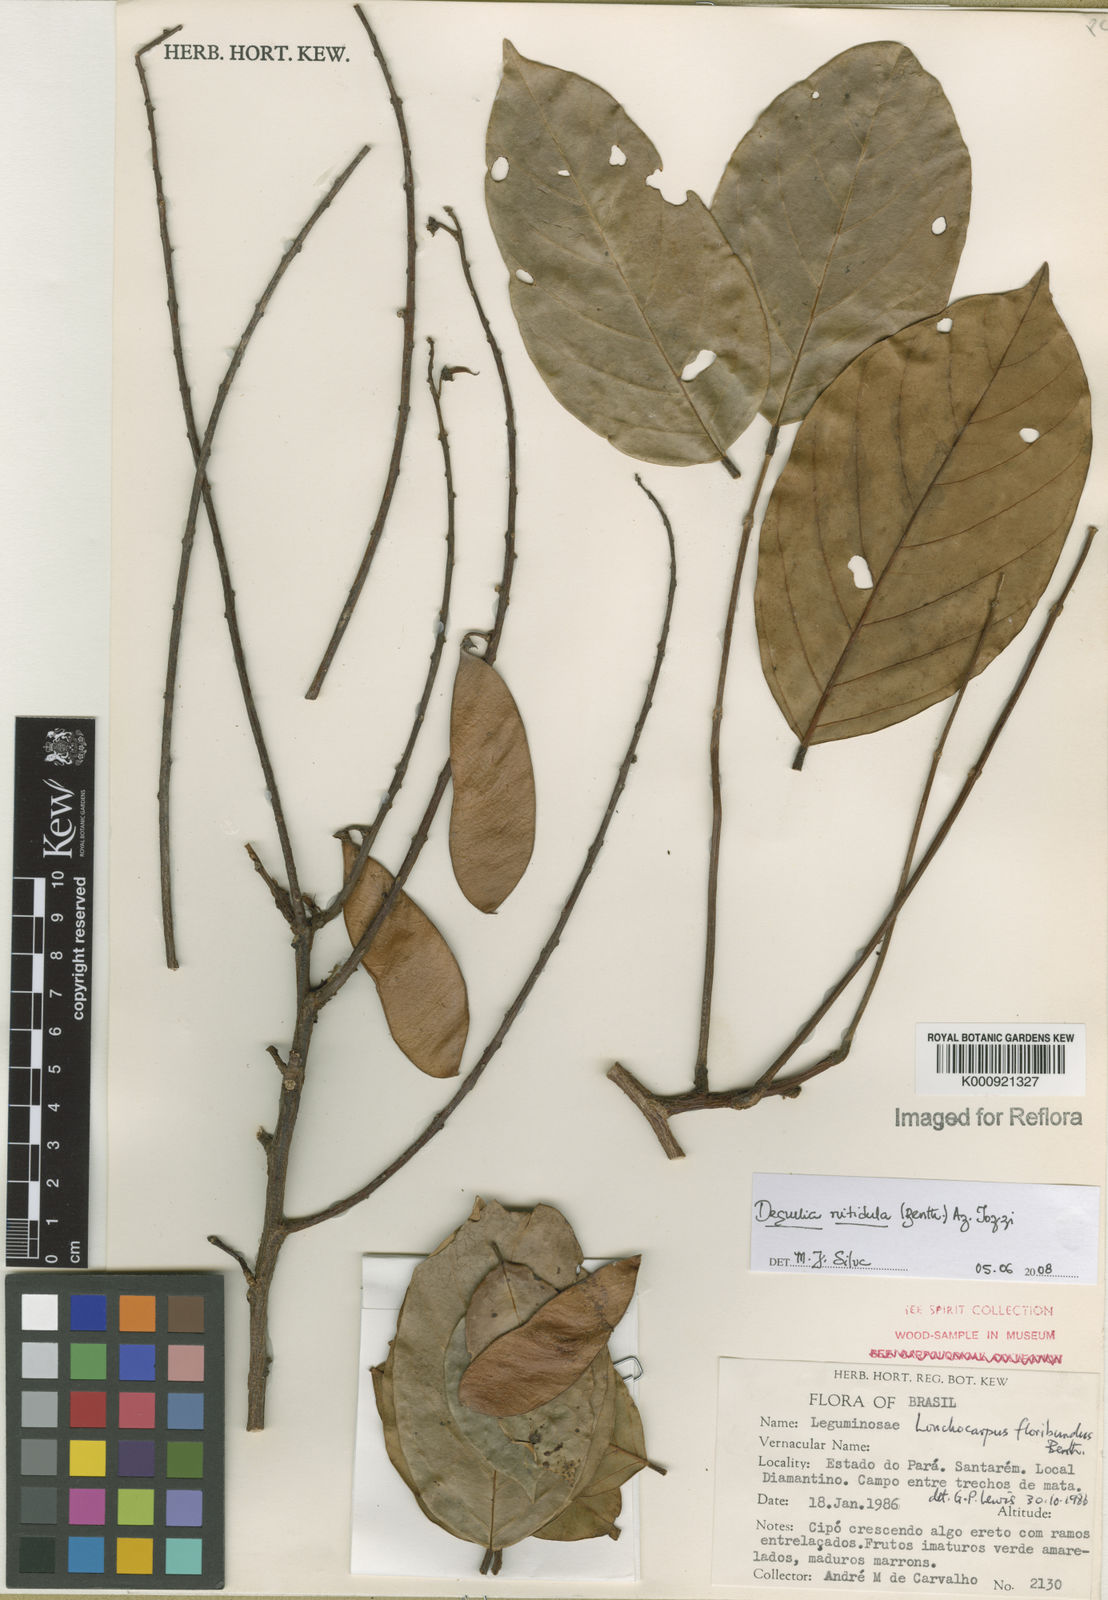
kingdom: Plantae
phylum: Tracheophyta
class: Magnoliopsida
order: Fabales
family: Fabaceae
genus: Deguelia
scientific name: Deguelia nitidula
